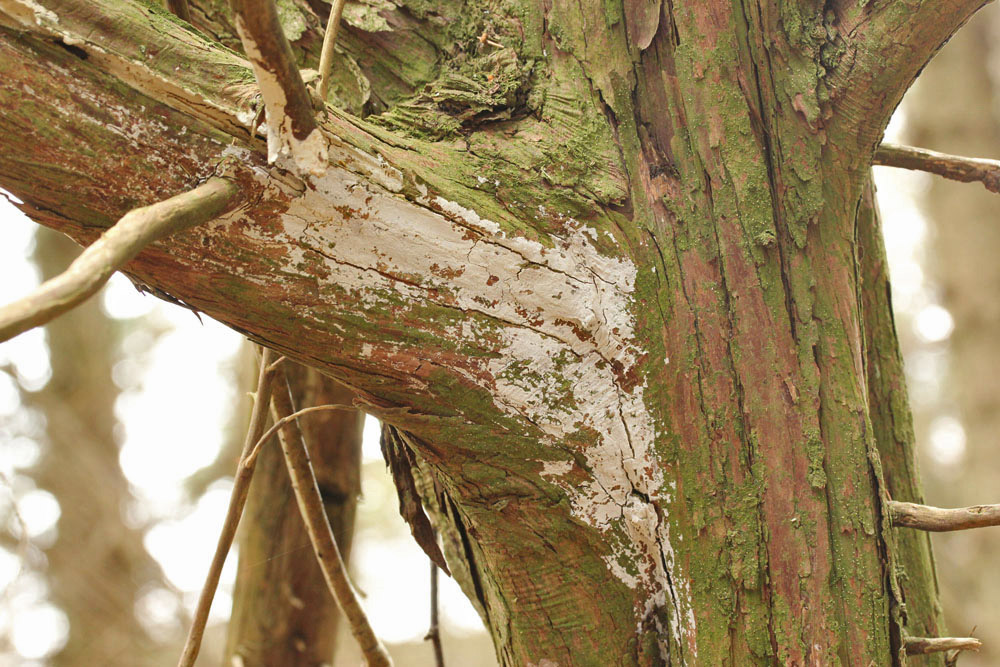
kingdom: Fungi
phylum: Basidiomycota
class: Agaricomycetes
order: Hymenochaetales
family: Schizoporaceae
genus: Xylodon
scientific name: Xylodon brevisetus
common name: tætvortet tandsvamp
